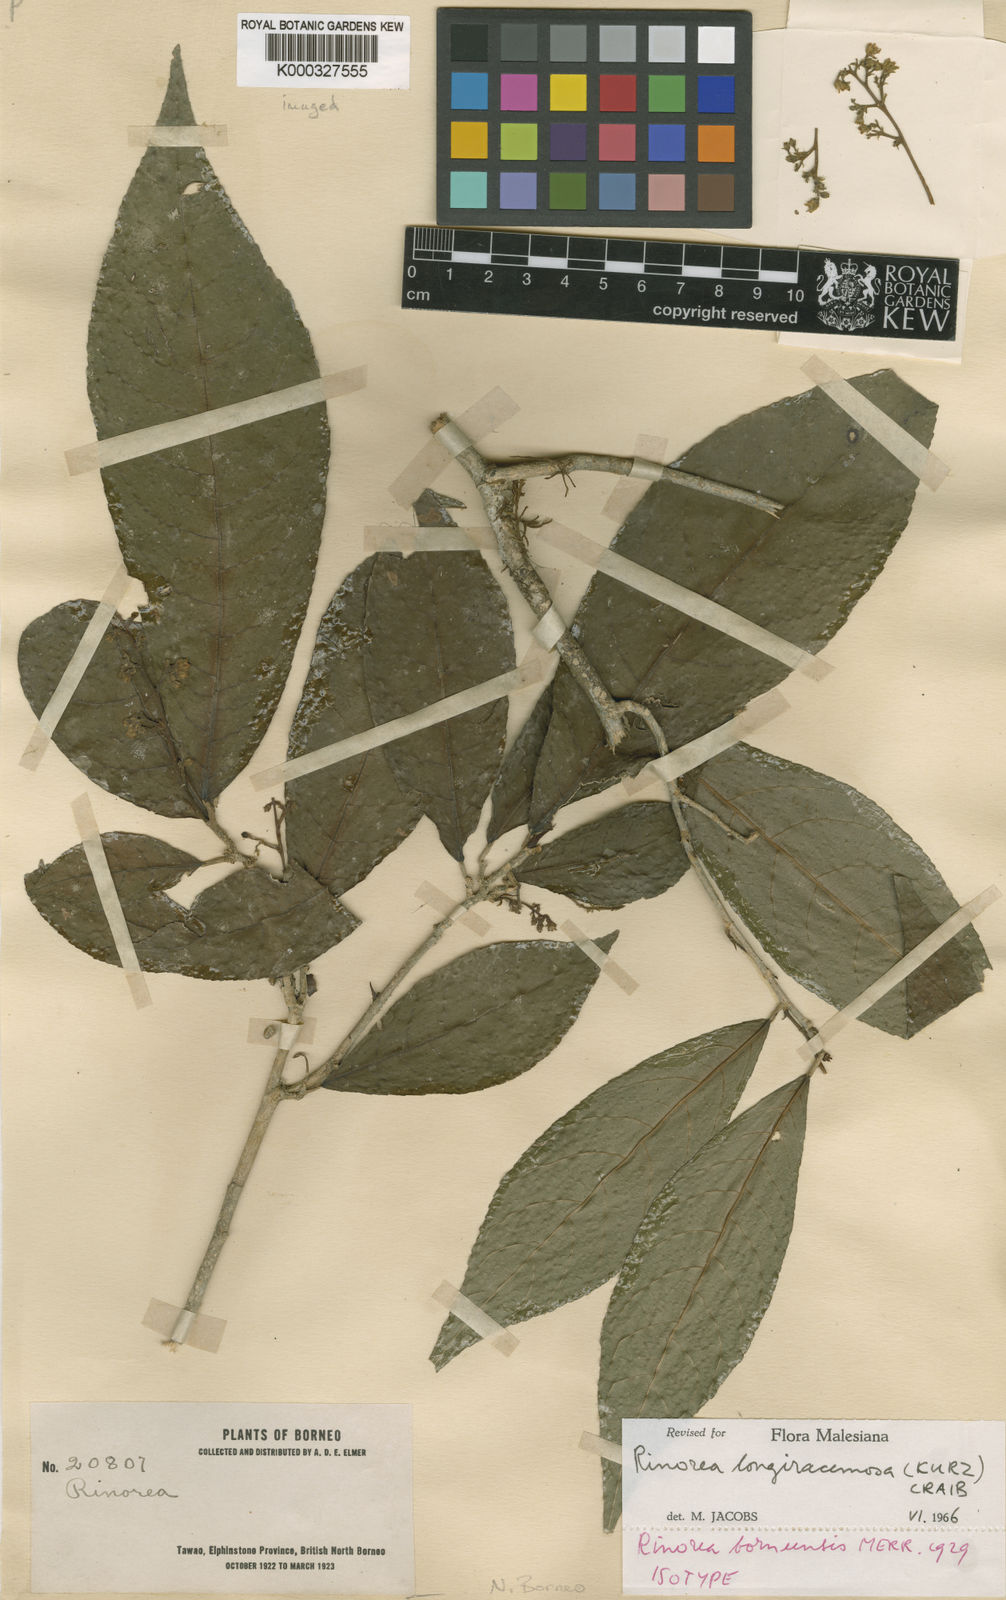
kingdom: Plantae
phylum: Tracheophyta
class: Magnoliopsida
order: Malpighiales
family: Violaceae
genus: Rinorea
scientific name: Rinorea longiracemosa
